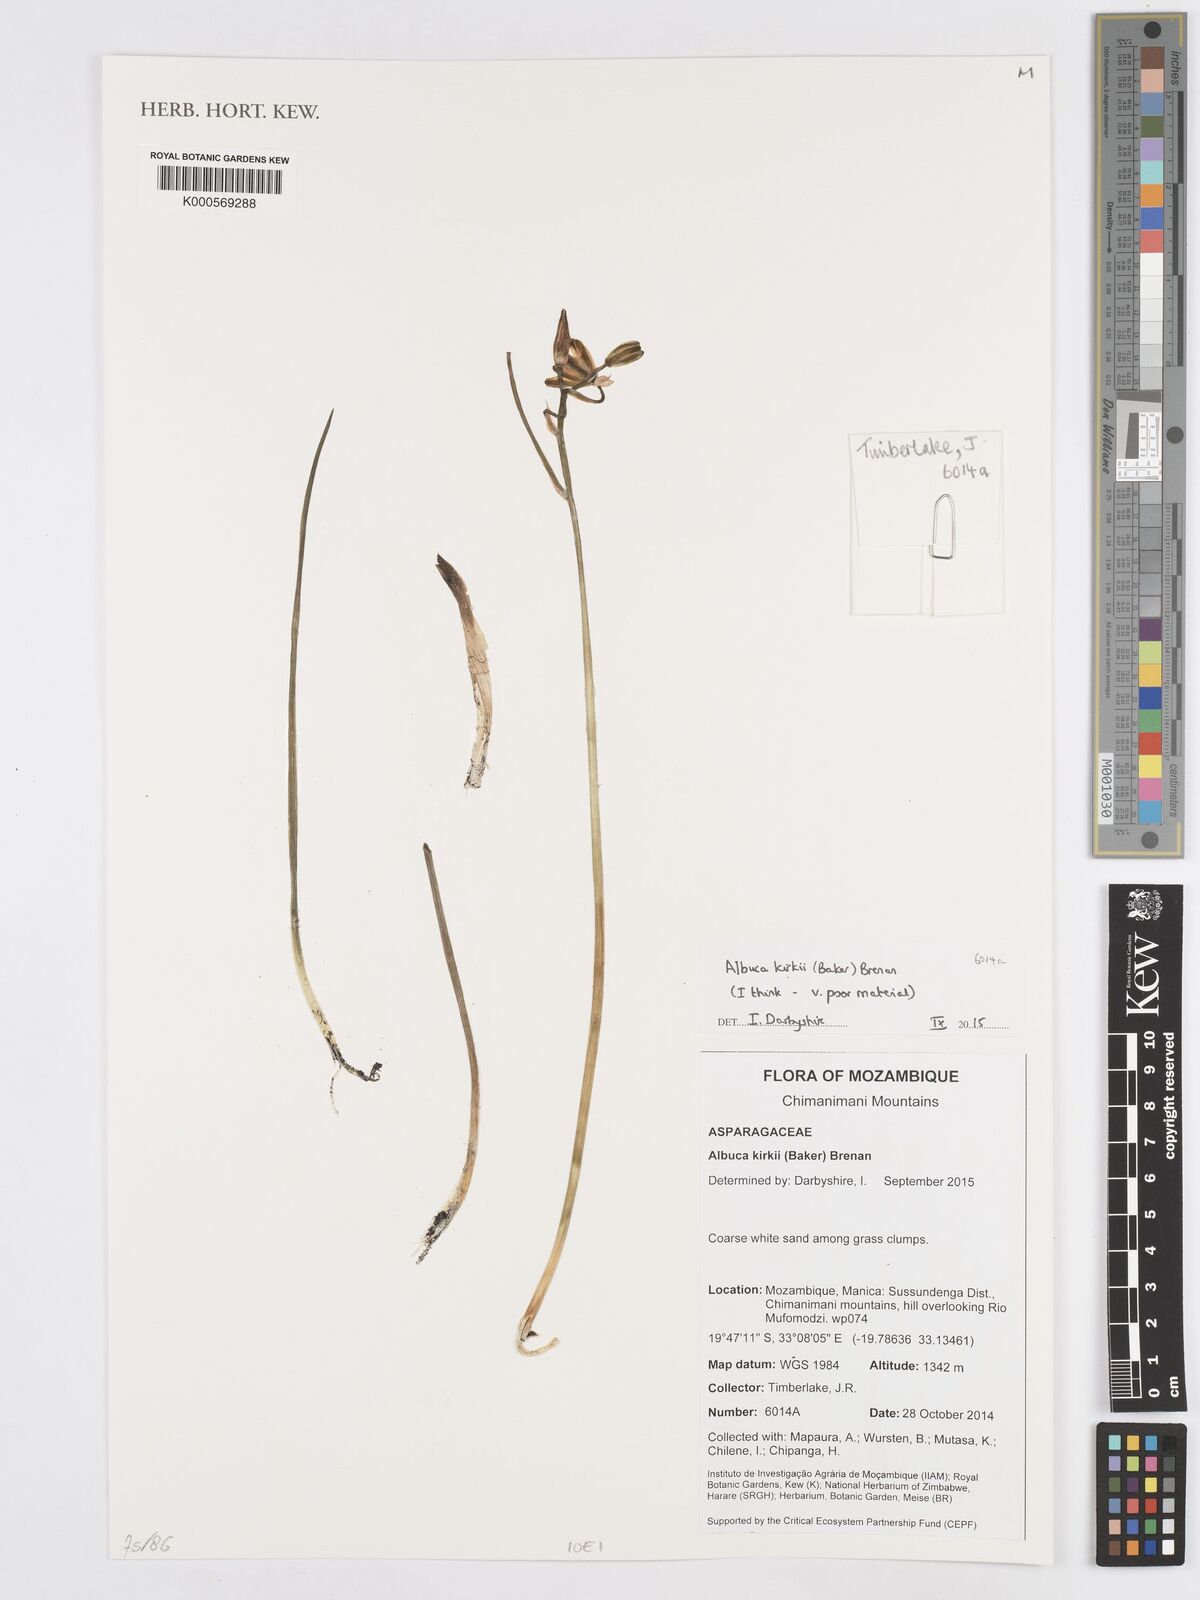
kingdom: Plantae
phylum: Tracheophyta
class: Liliopsida
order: Asparagales
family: Asparagaceae
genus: Albuca
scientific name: Albuca kirkii
